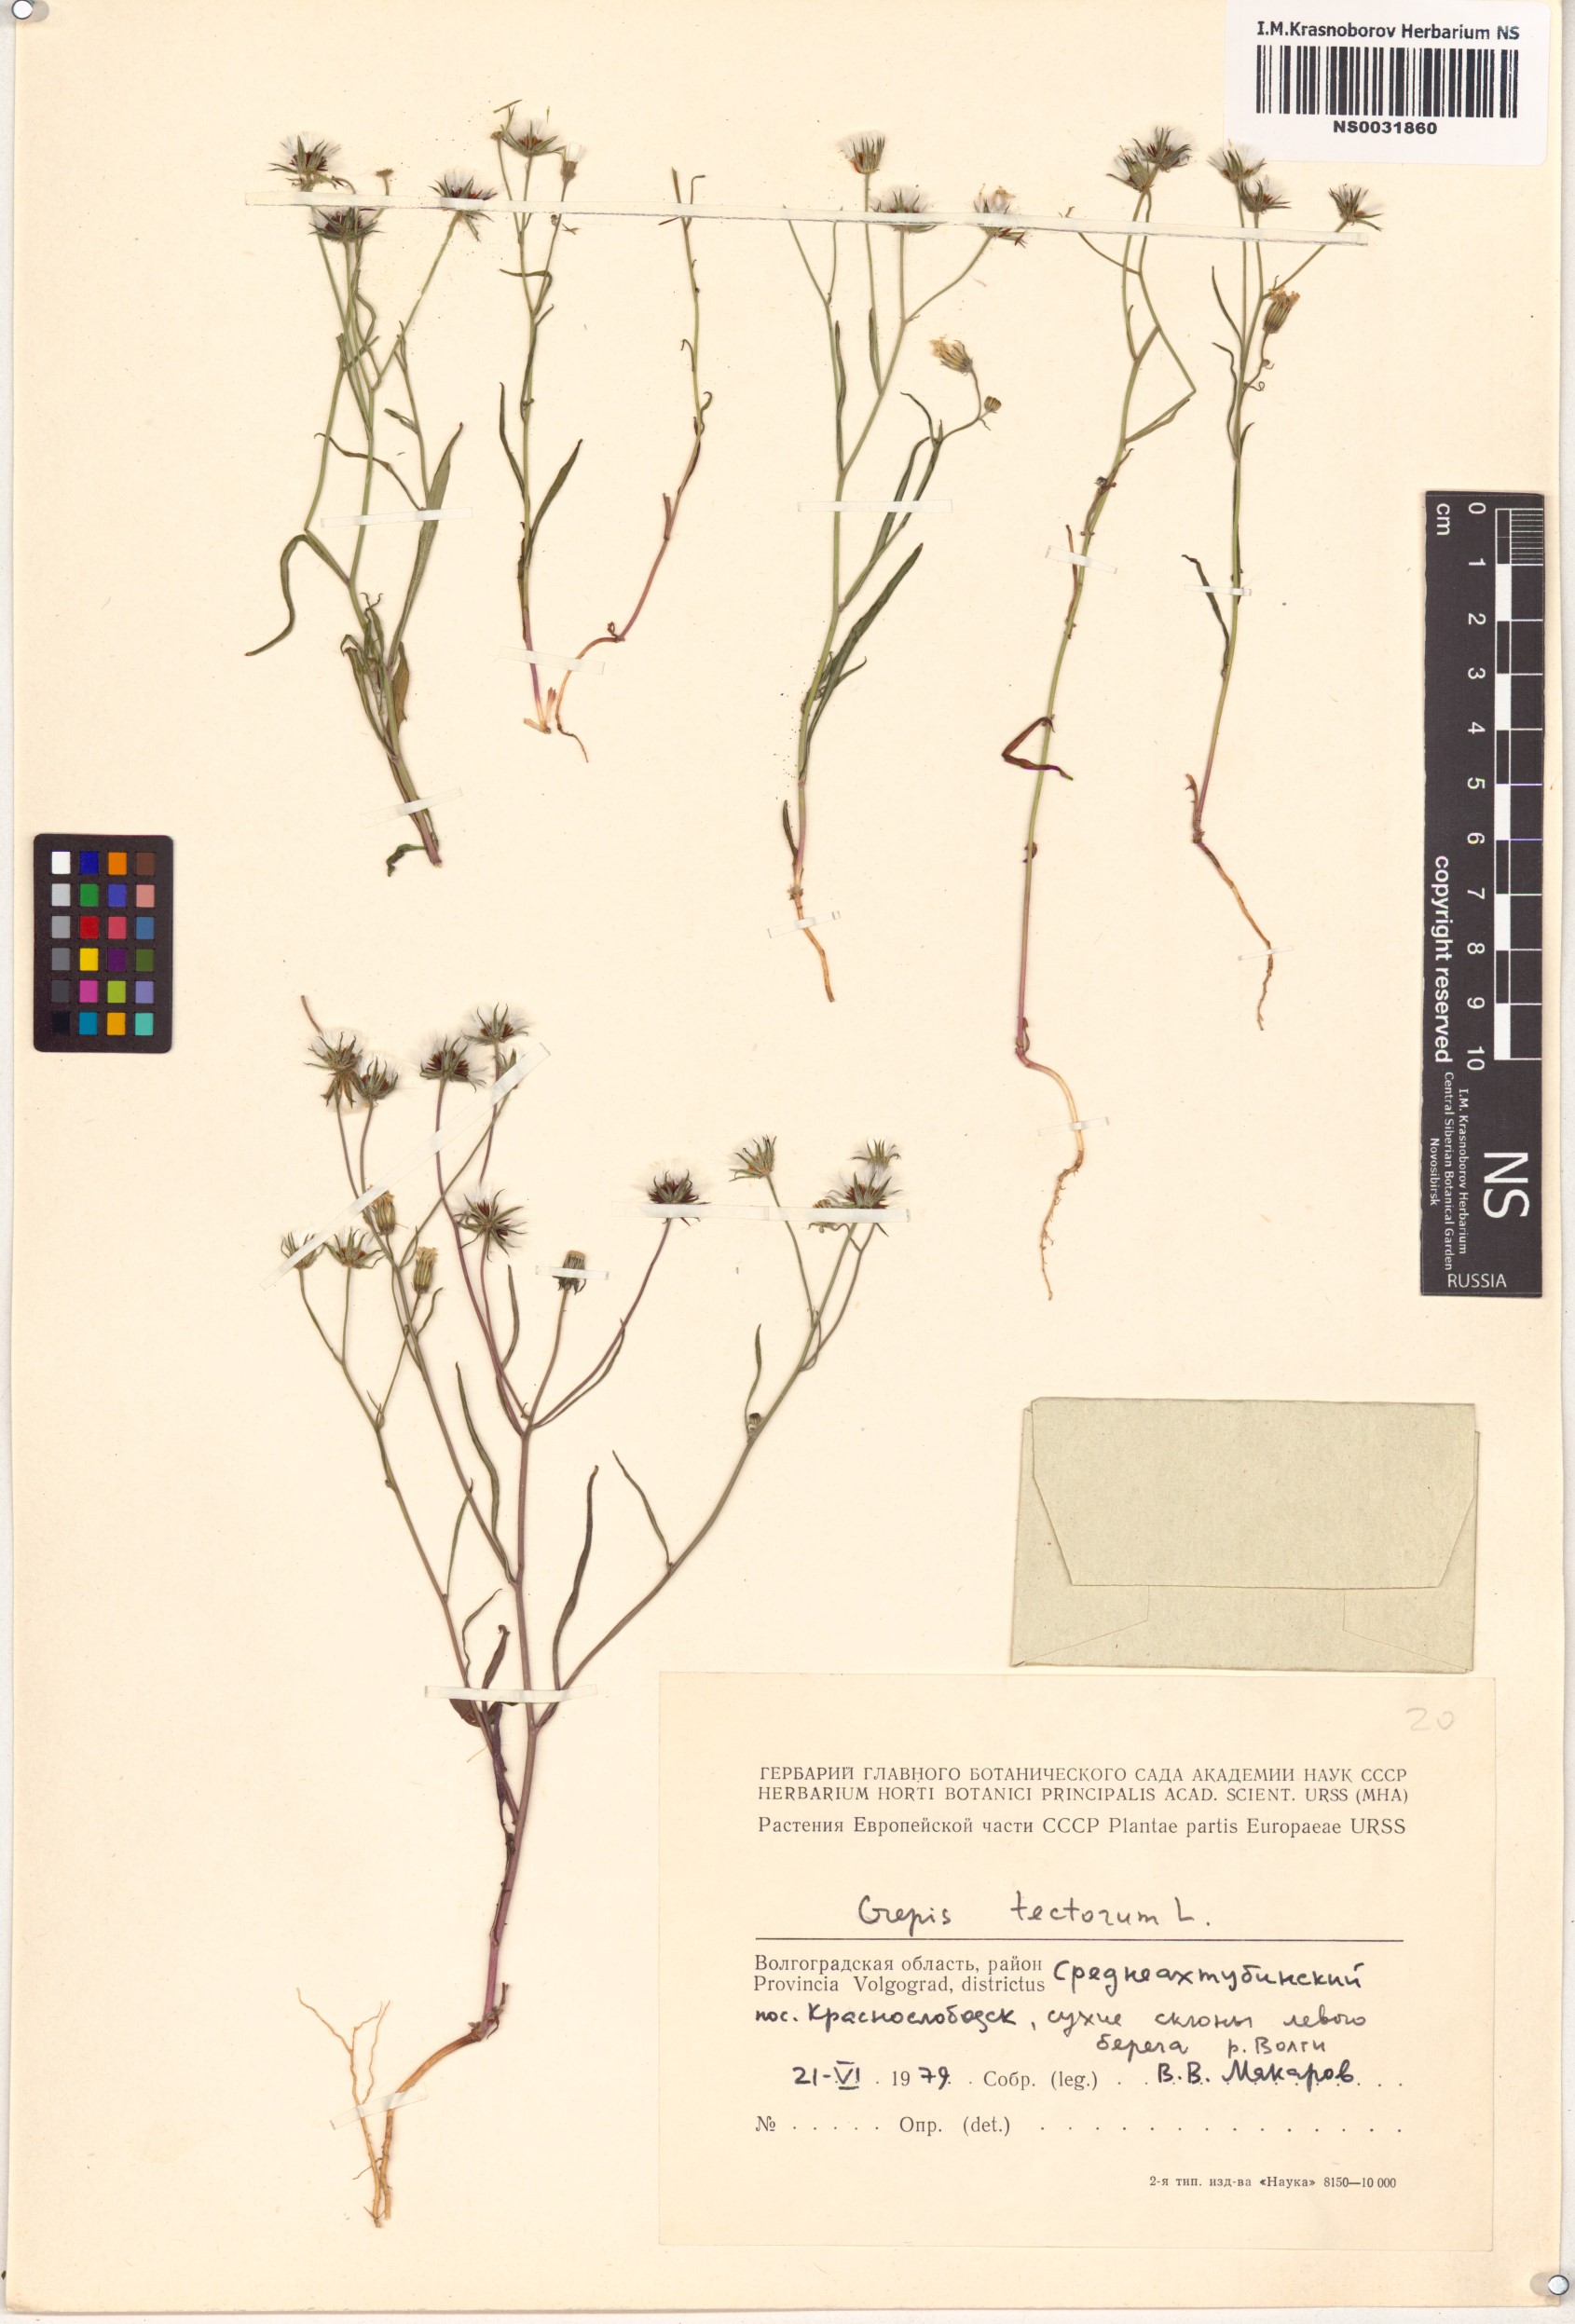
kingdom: Plantae
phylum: Tracheophyta
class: Magnoliopsida
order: Asterales
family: Asteraceae
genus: Crepis
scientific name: Crepis tectorum
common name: Narrow-leaved hawk's-beard
